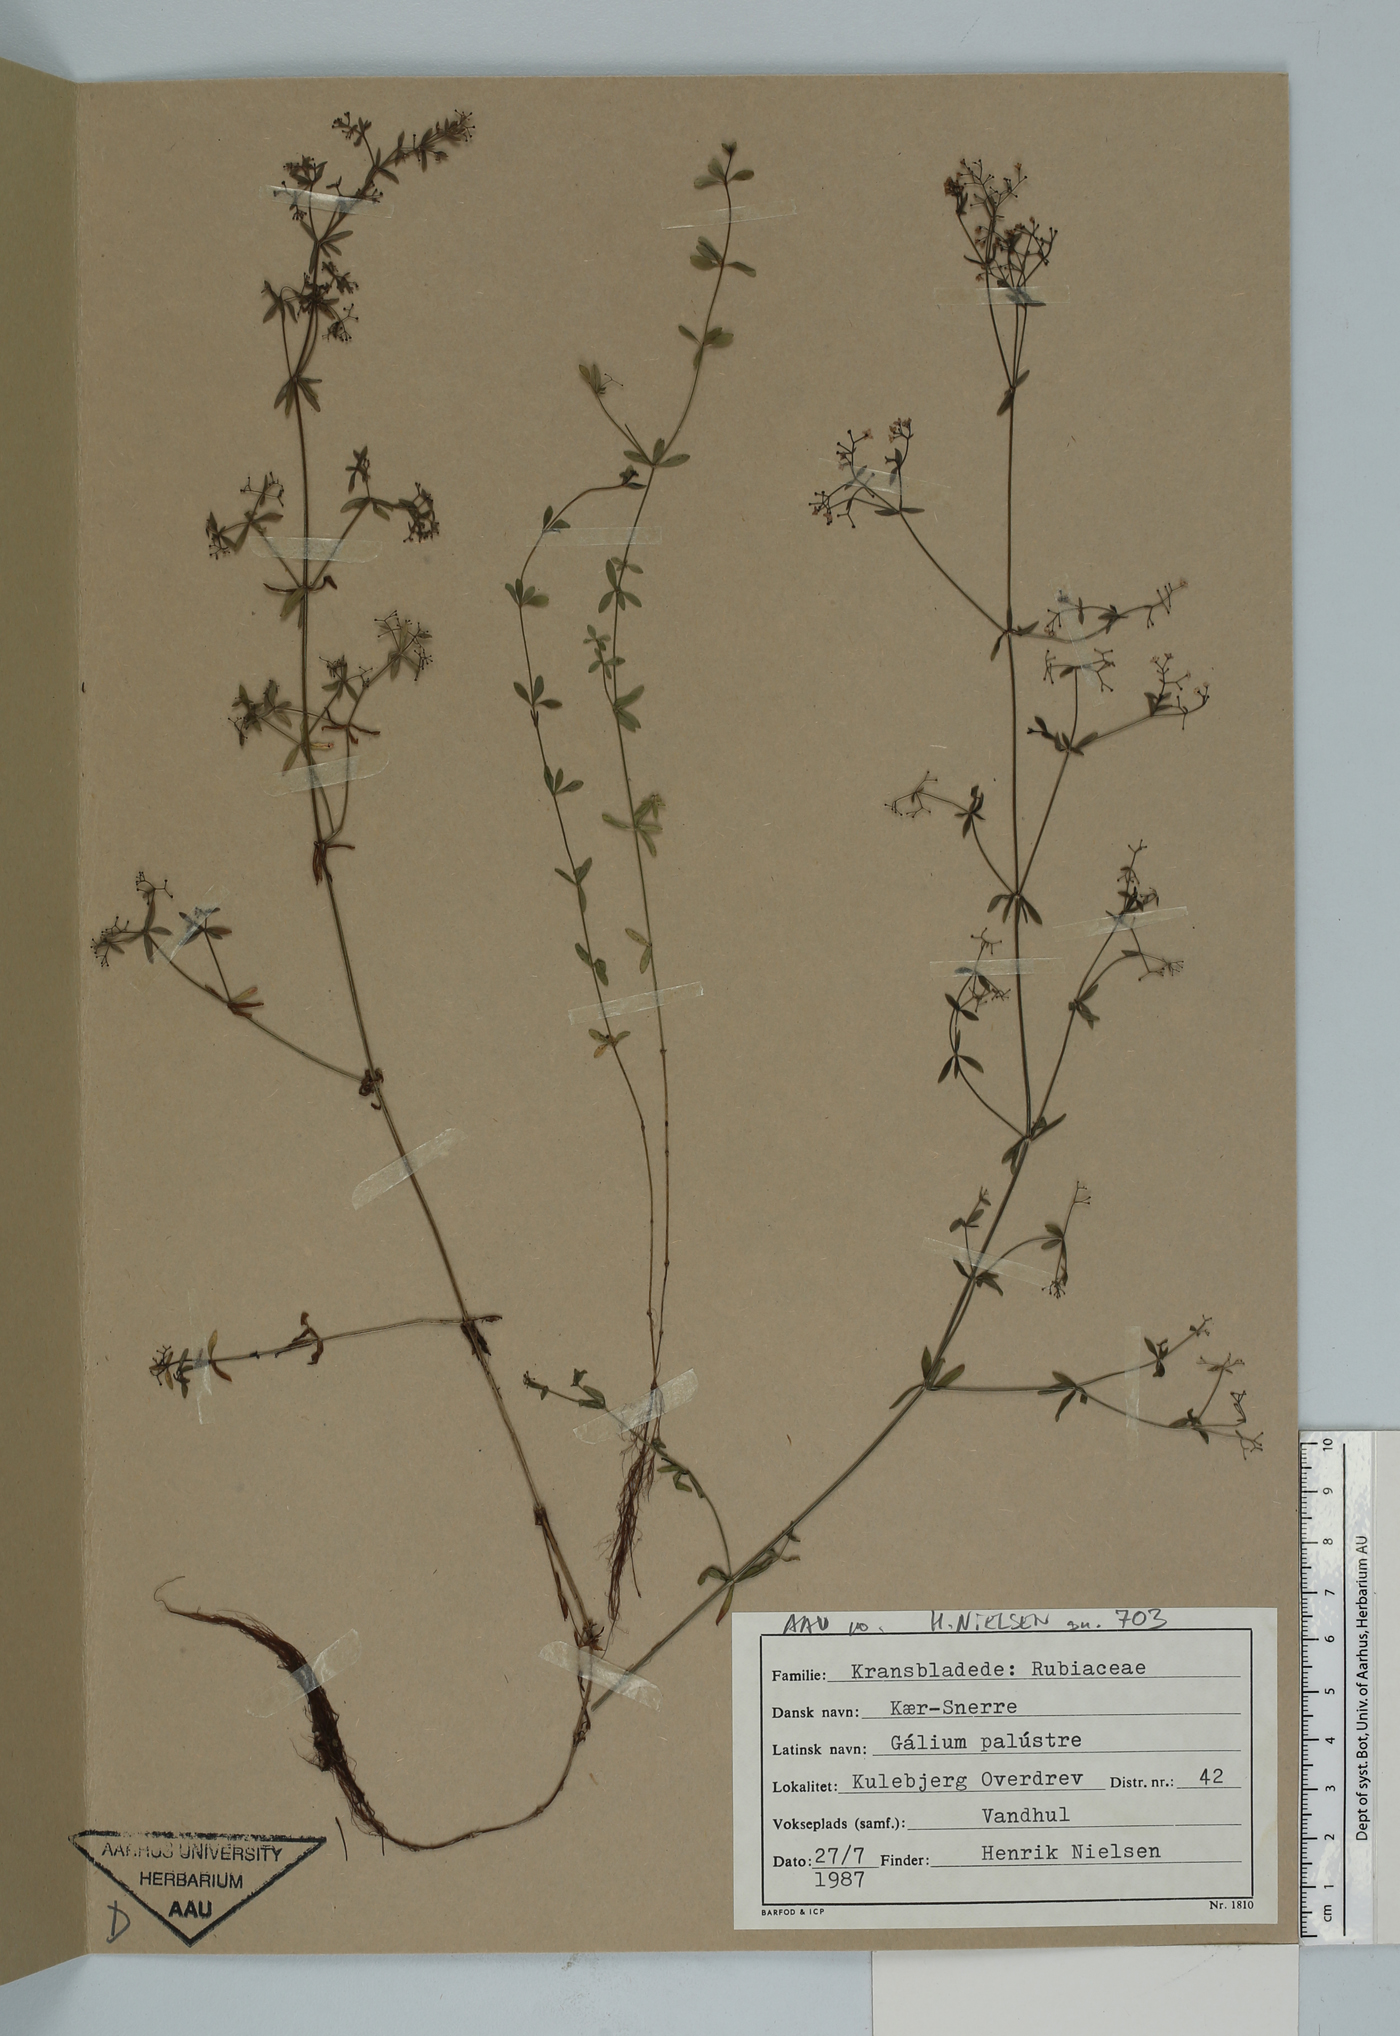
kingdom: Plantae
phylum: Tracheophyta
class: Magnoliopsida
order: Gentianales
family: Rubiaceae
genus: Galium
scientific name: Galium palustre
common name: Common marsh-bedstraw
